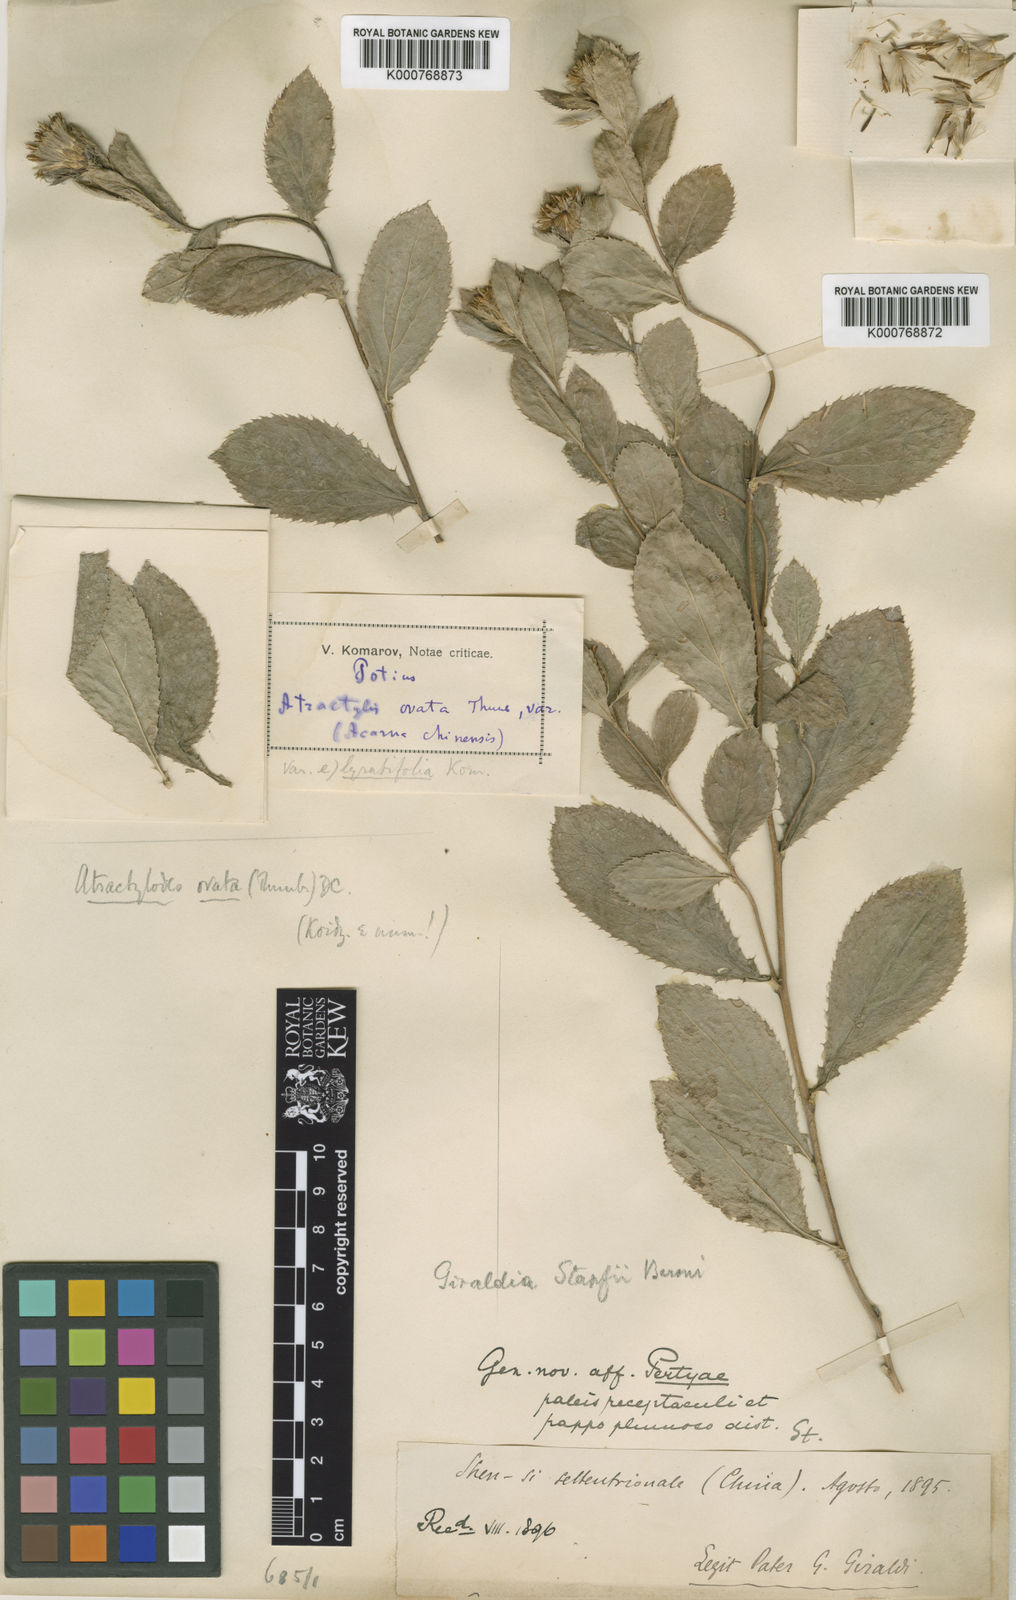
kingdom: Plantae
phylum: Tracheophyta
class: Magnoliopsida
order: Asterales
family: Asteraceae
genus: Atractylodes
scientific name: Atractylodes lancea
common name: Southern tsangshu
